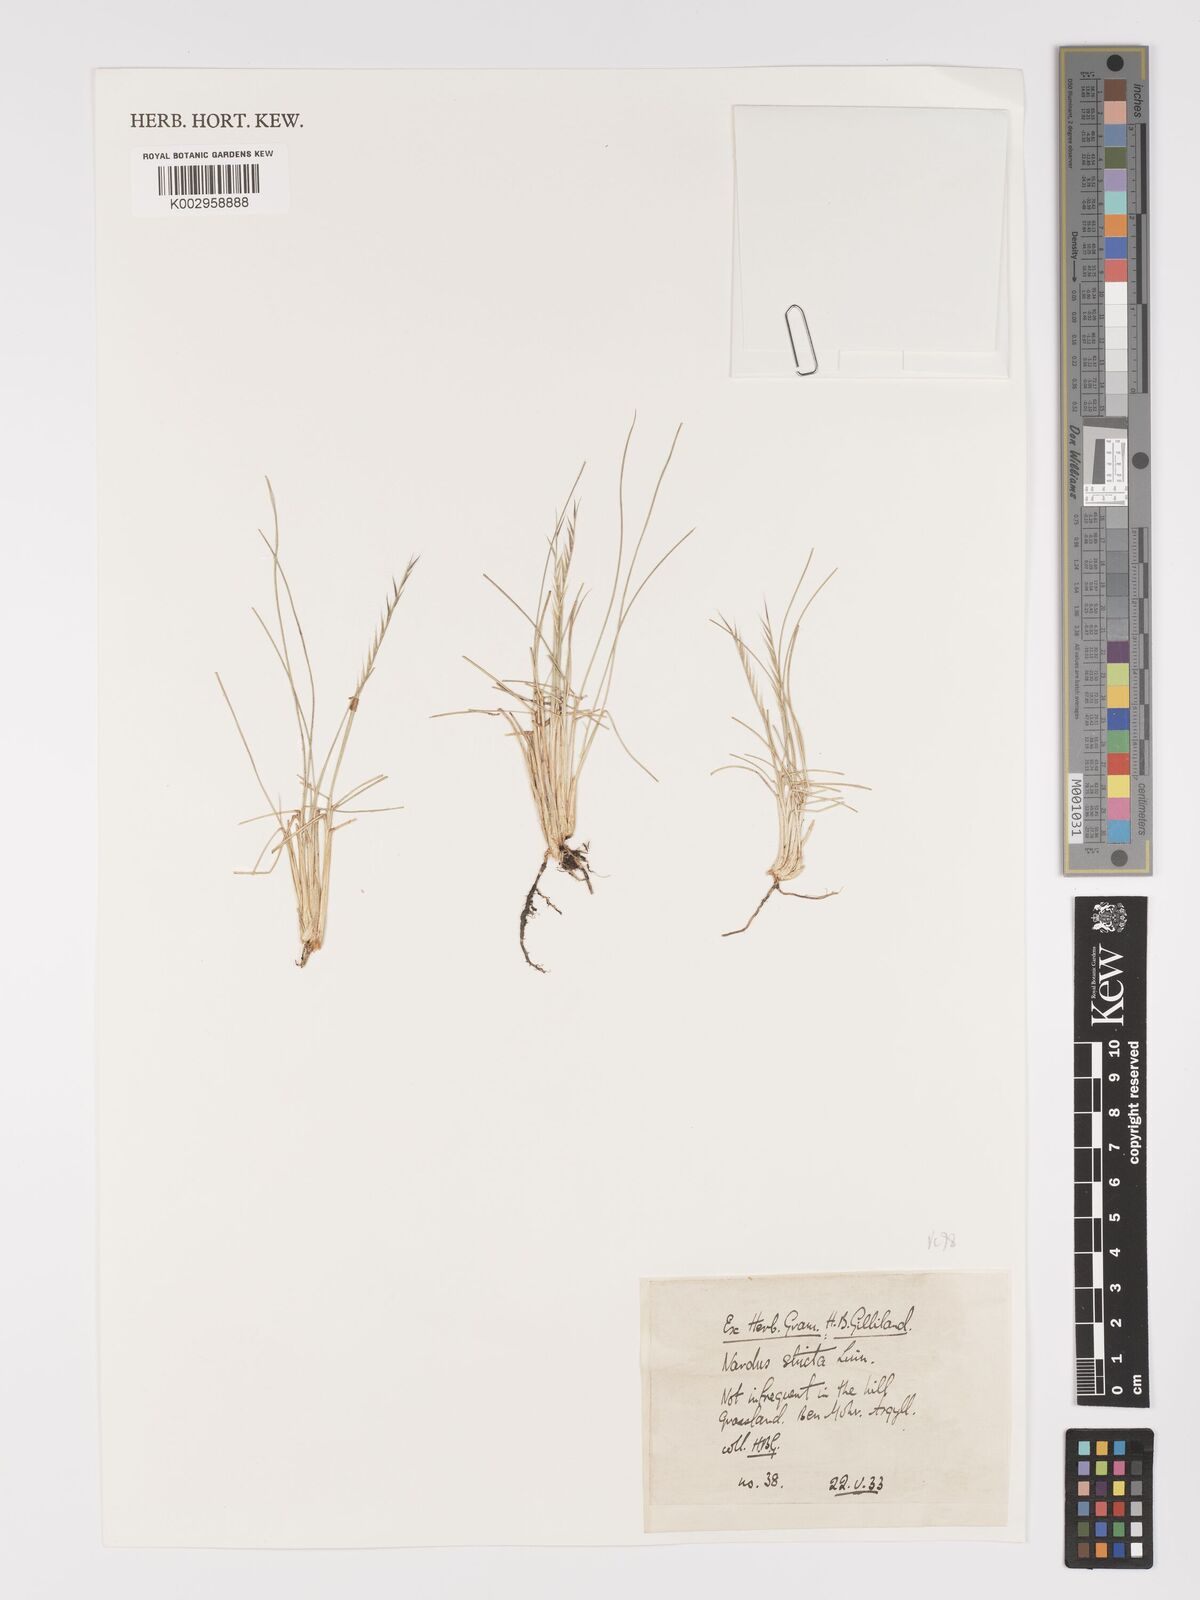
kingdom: Plantae
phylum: Tracheophyta
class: Liliopsida
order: Poales
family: Poaceae
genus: Nardus
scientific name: Nardus stricta
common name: Mat-grass
